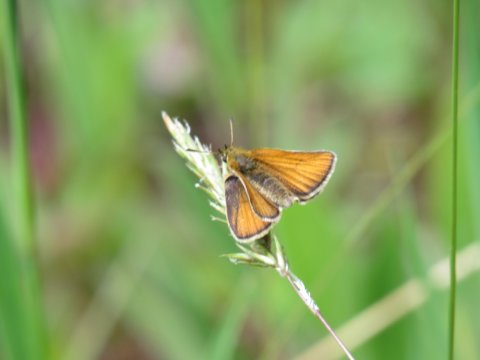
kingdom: Animalia
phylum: Arthropoda
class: Insecta
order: Lepidoptera
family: Hesperiidae
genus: Thymelicus
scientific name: Thymelicus lineola
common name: European Skipper
